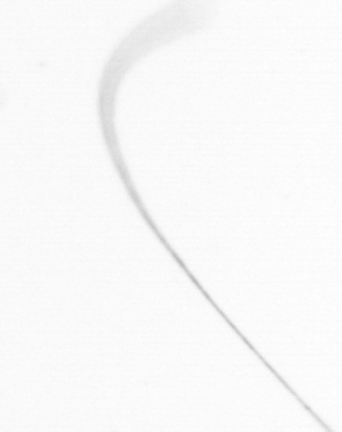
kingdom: Chromista
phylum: Ochrophyta
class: Bacillariophyceae
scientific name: Bacillariophyceae
